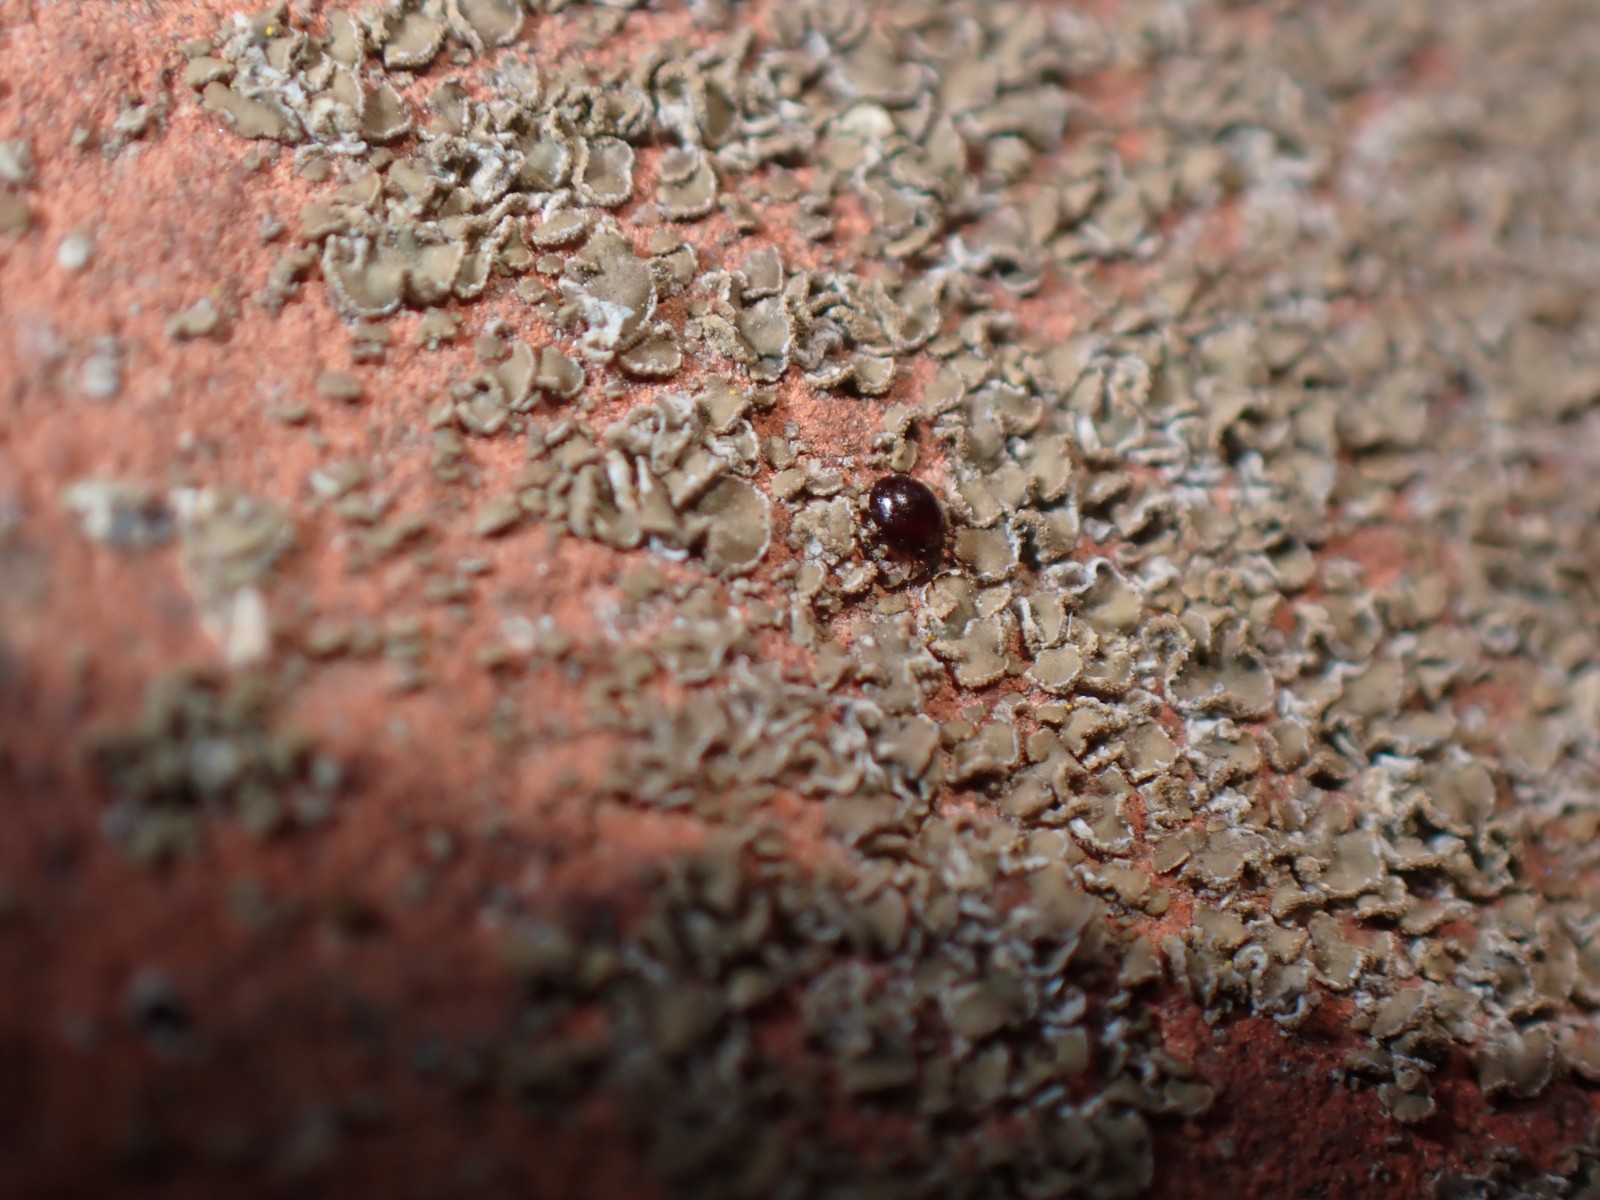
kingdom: Fungi
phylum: Ascomycota
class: Lecanoromycetes
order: Umbilicariales
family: Ophioparmaceae
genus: Hypocenomyce
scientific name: Hypocenomyce scalaris
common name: småskællet muslinglav
